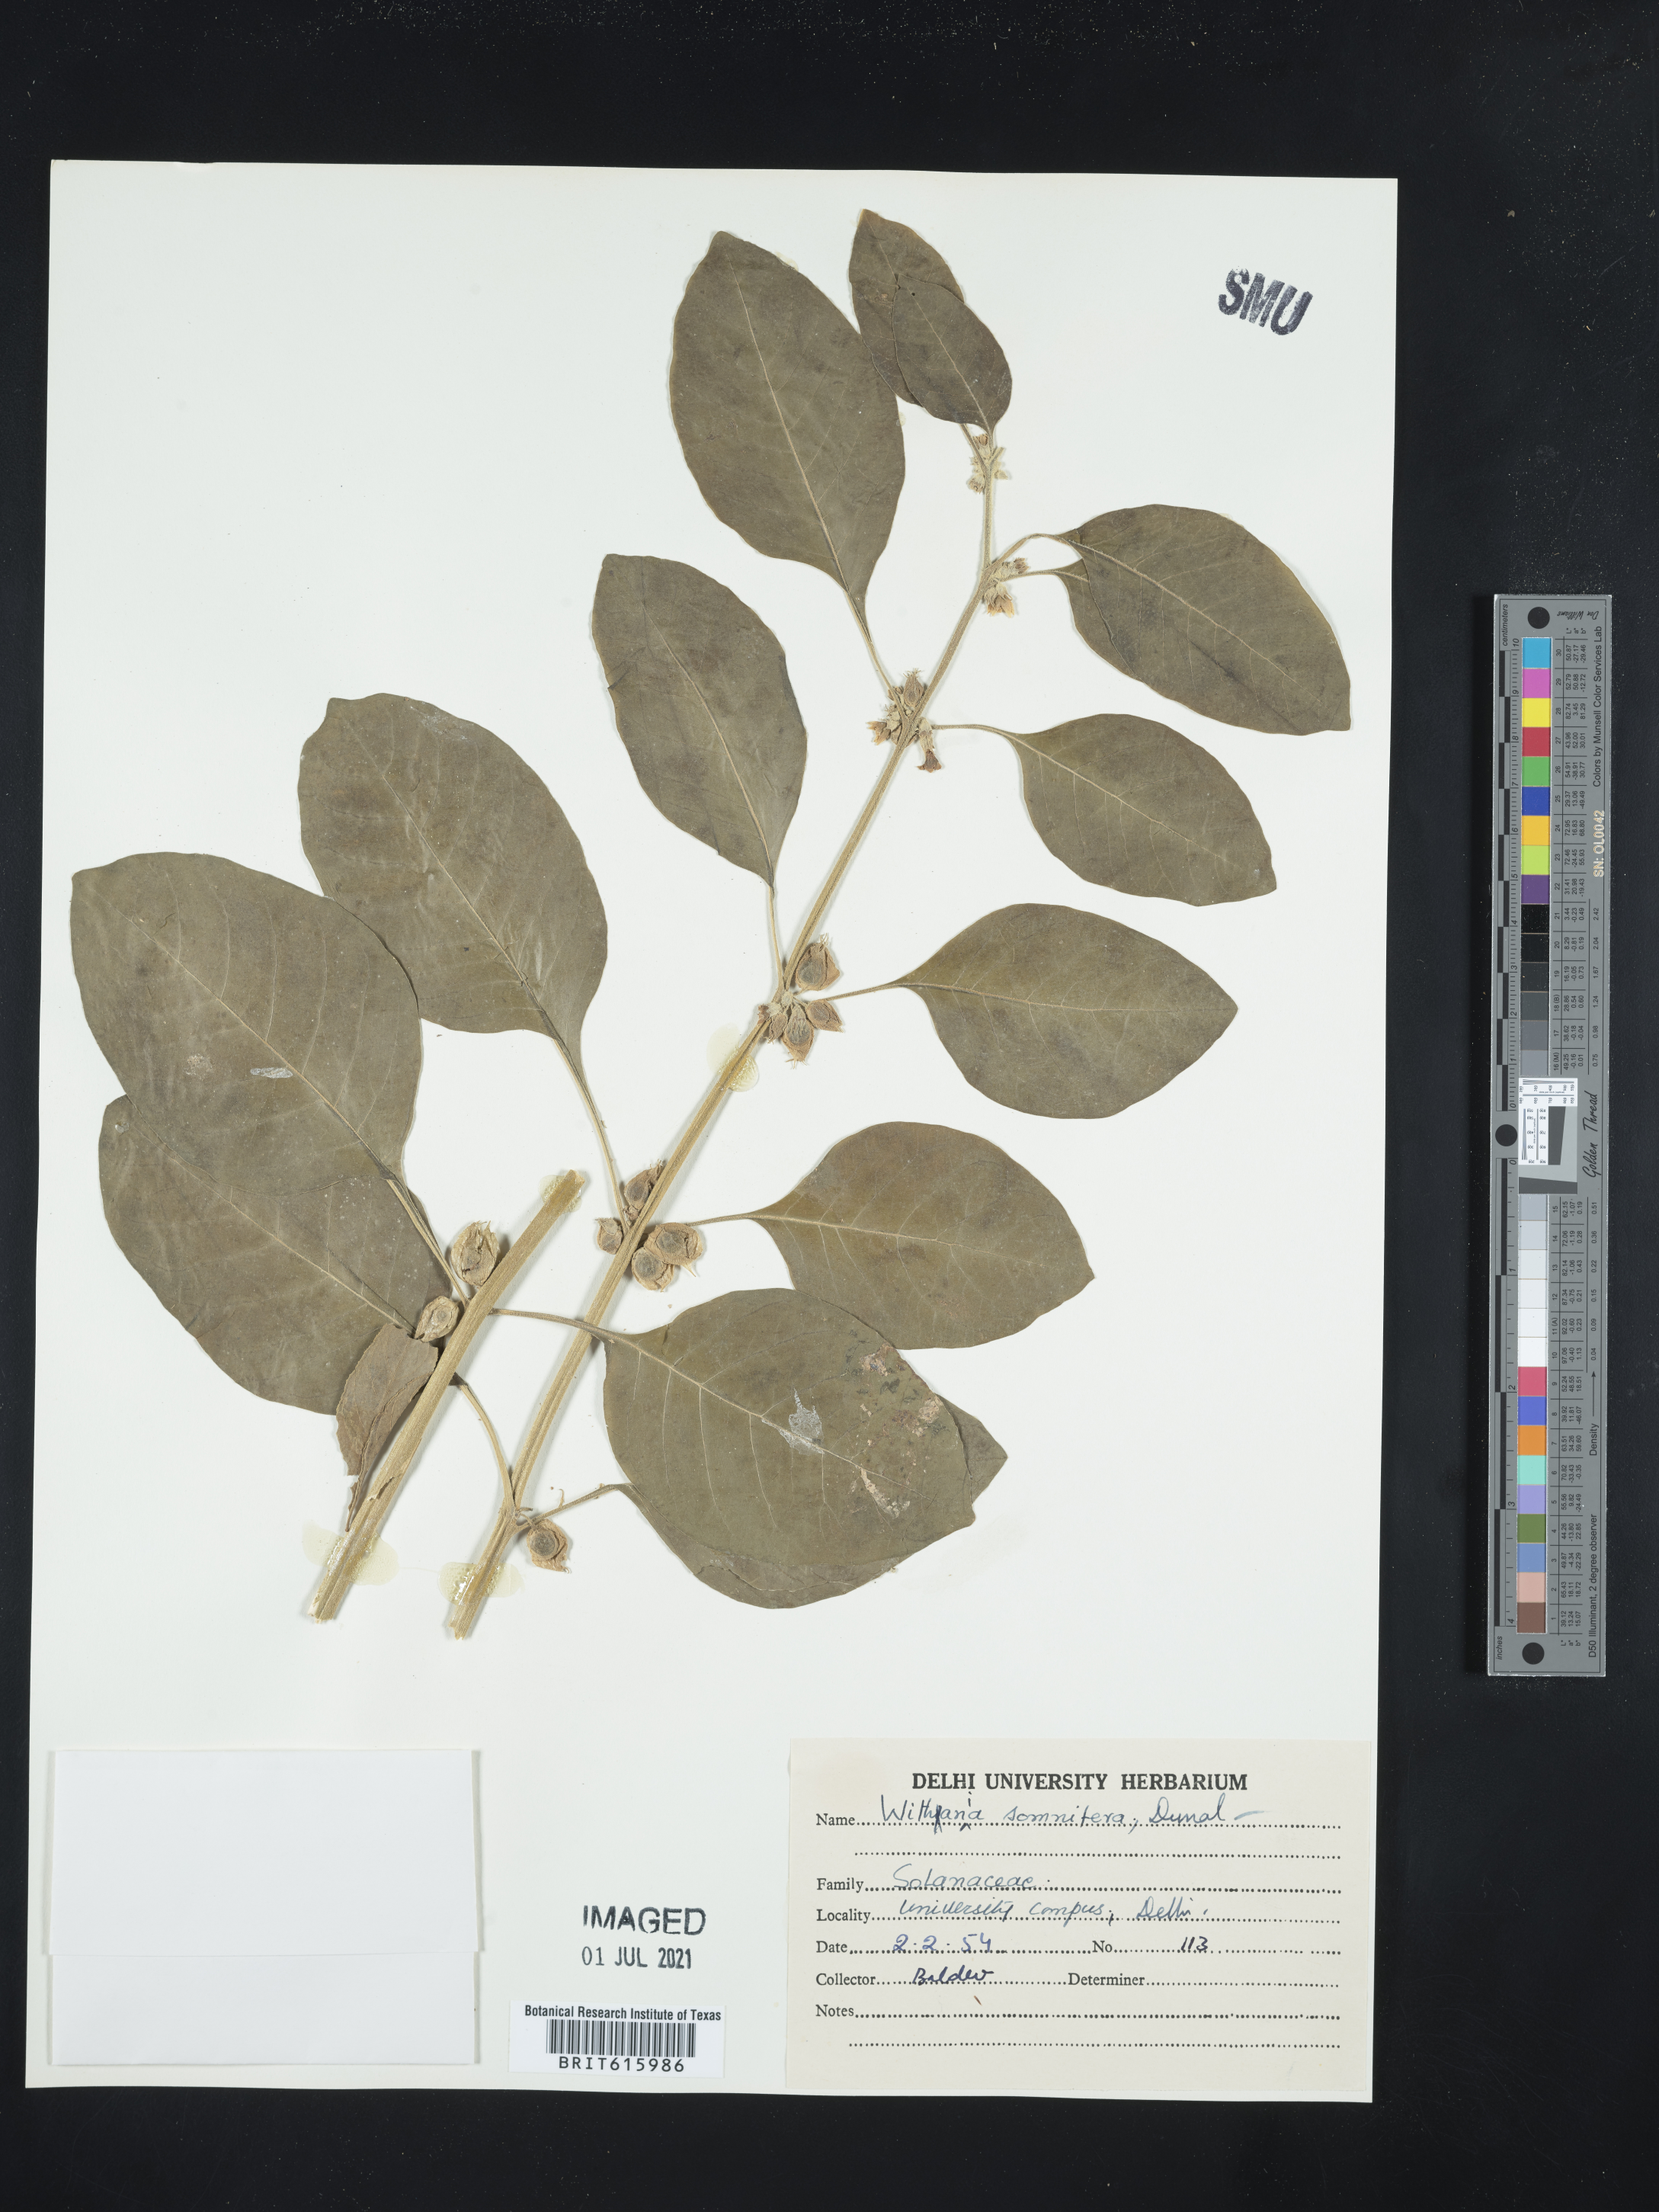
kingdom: Plantae
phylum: Tracheophyta
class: Magnoliopsida
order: Solanales
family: Solanaceae
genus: Withania
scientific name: Withania somnifera
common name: Winter-cherry
